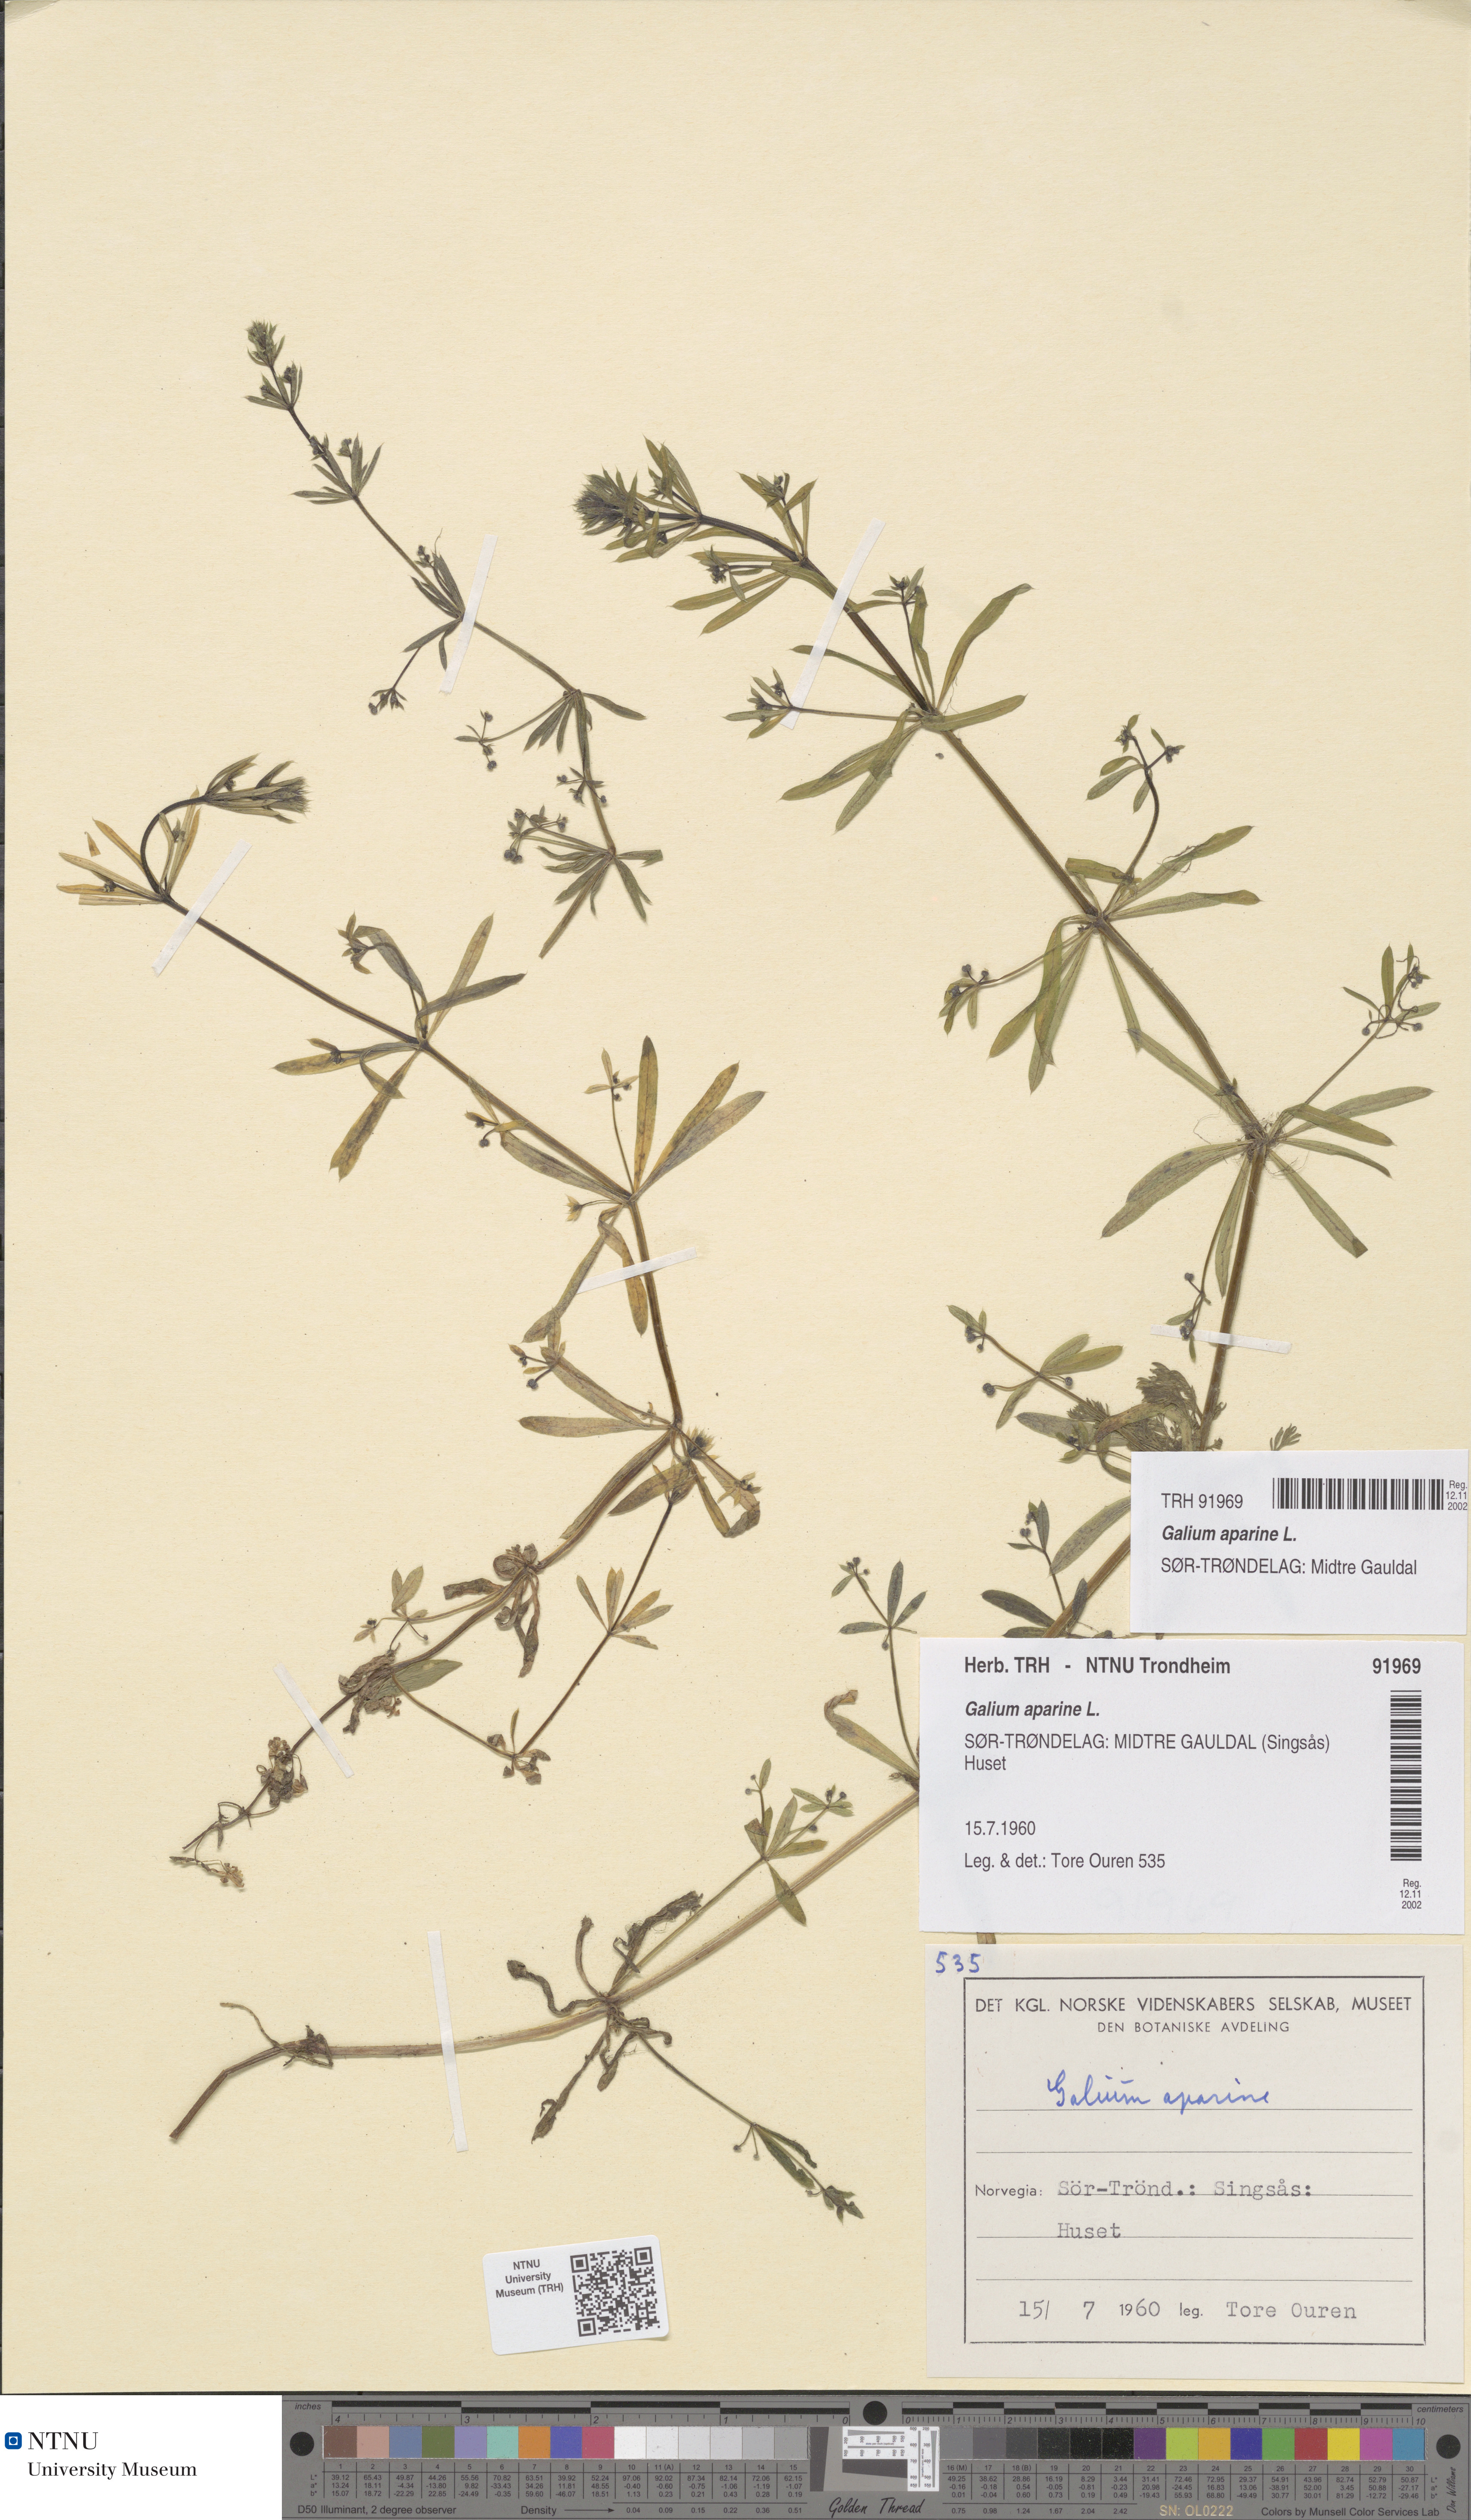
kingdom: Plantae
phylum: Tracheophyta
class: Magnoliopsida
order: Gentianales
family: Rubiaceae
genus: Galium
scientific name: Galium aparine
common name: Cleavers
